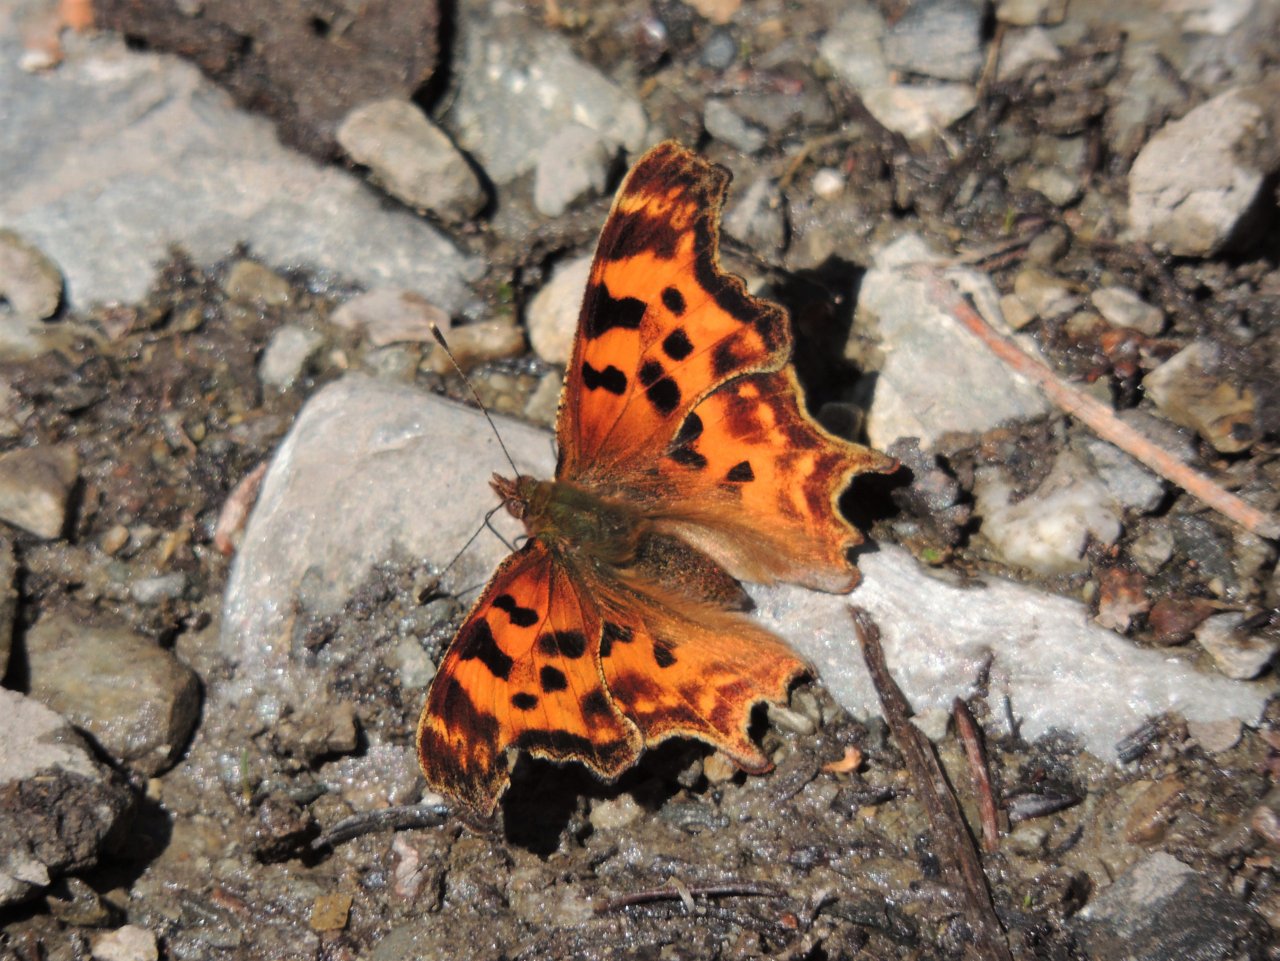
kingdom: Animalia
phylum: Arthropoda
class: Insecta
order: Lepidoptera
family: Nymphalidae
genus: Polygonia
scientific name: Polygonia satyrus
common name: Satyr Comma
